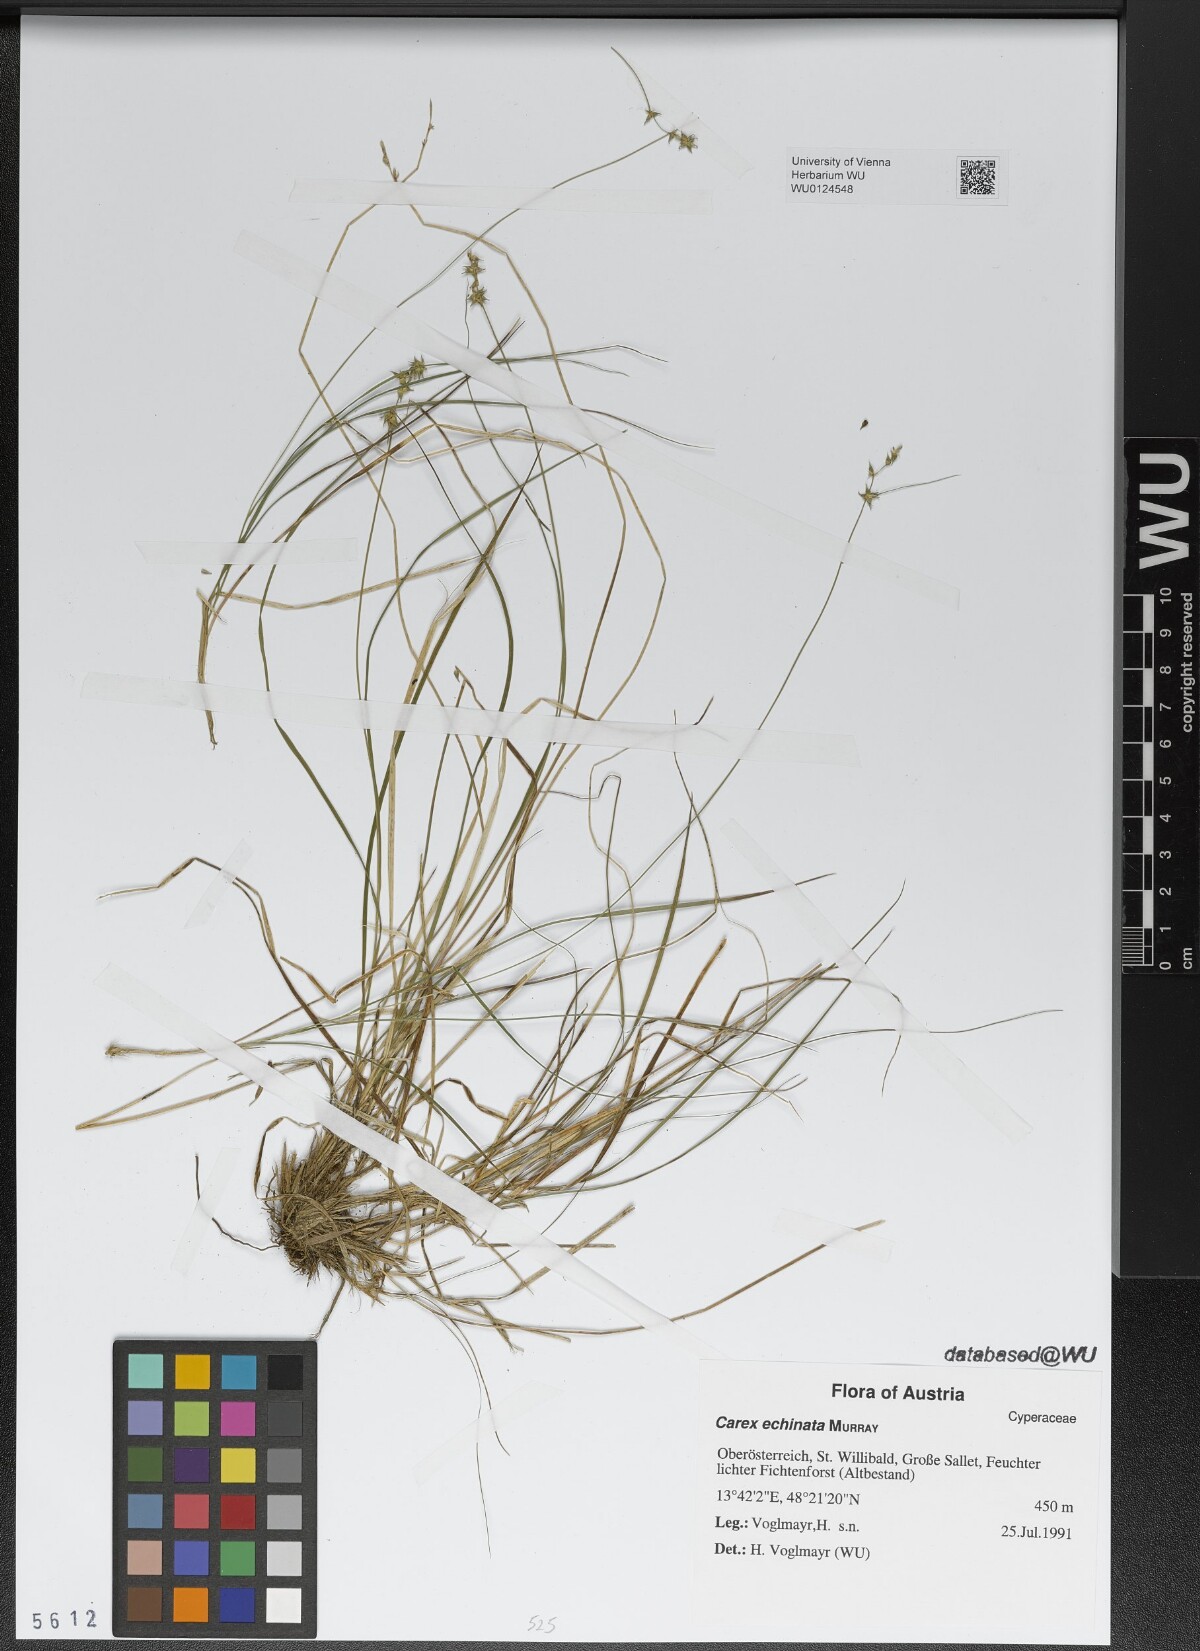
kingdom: Plantae
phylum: Tracheophyta
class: Liliopsida
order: Poales
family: Cyperaceae
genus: Carex
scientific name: Carex echinata
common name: Star sedge
